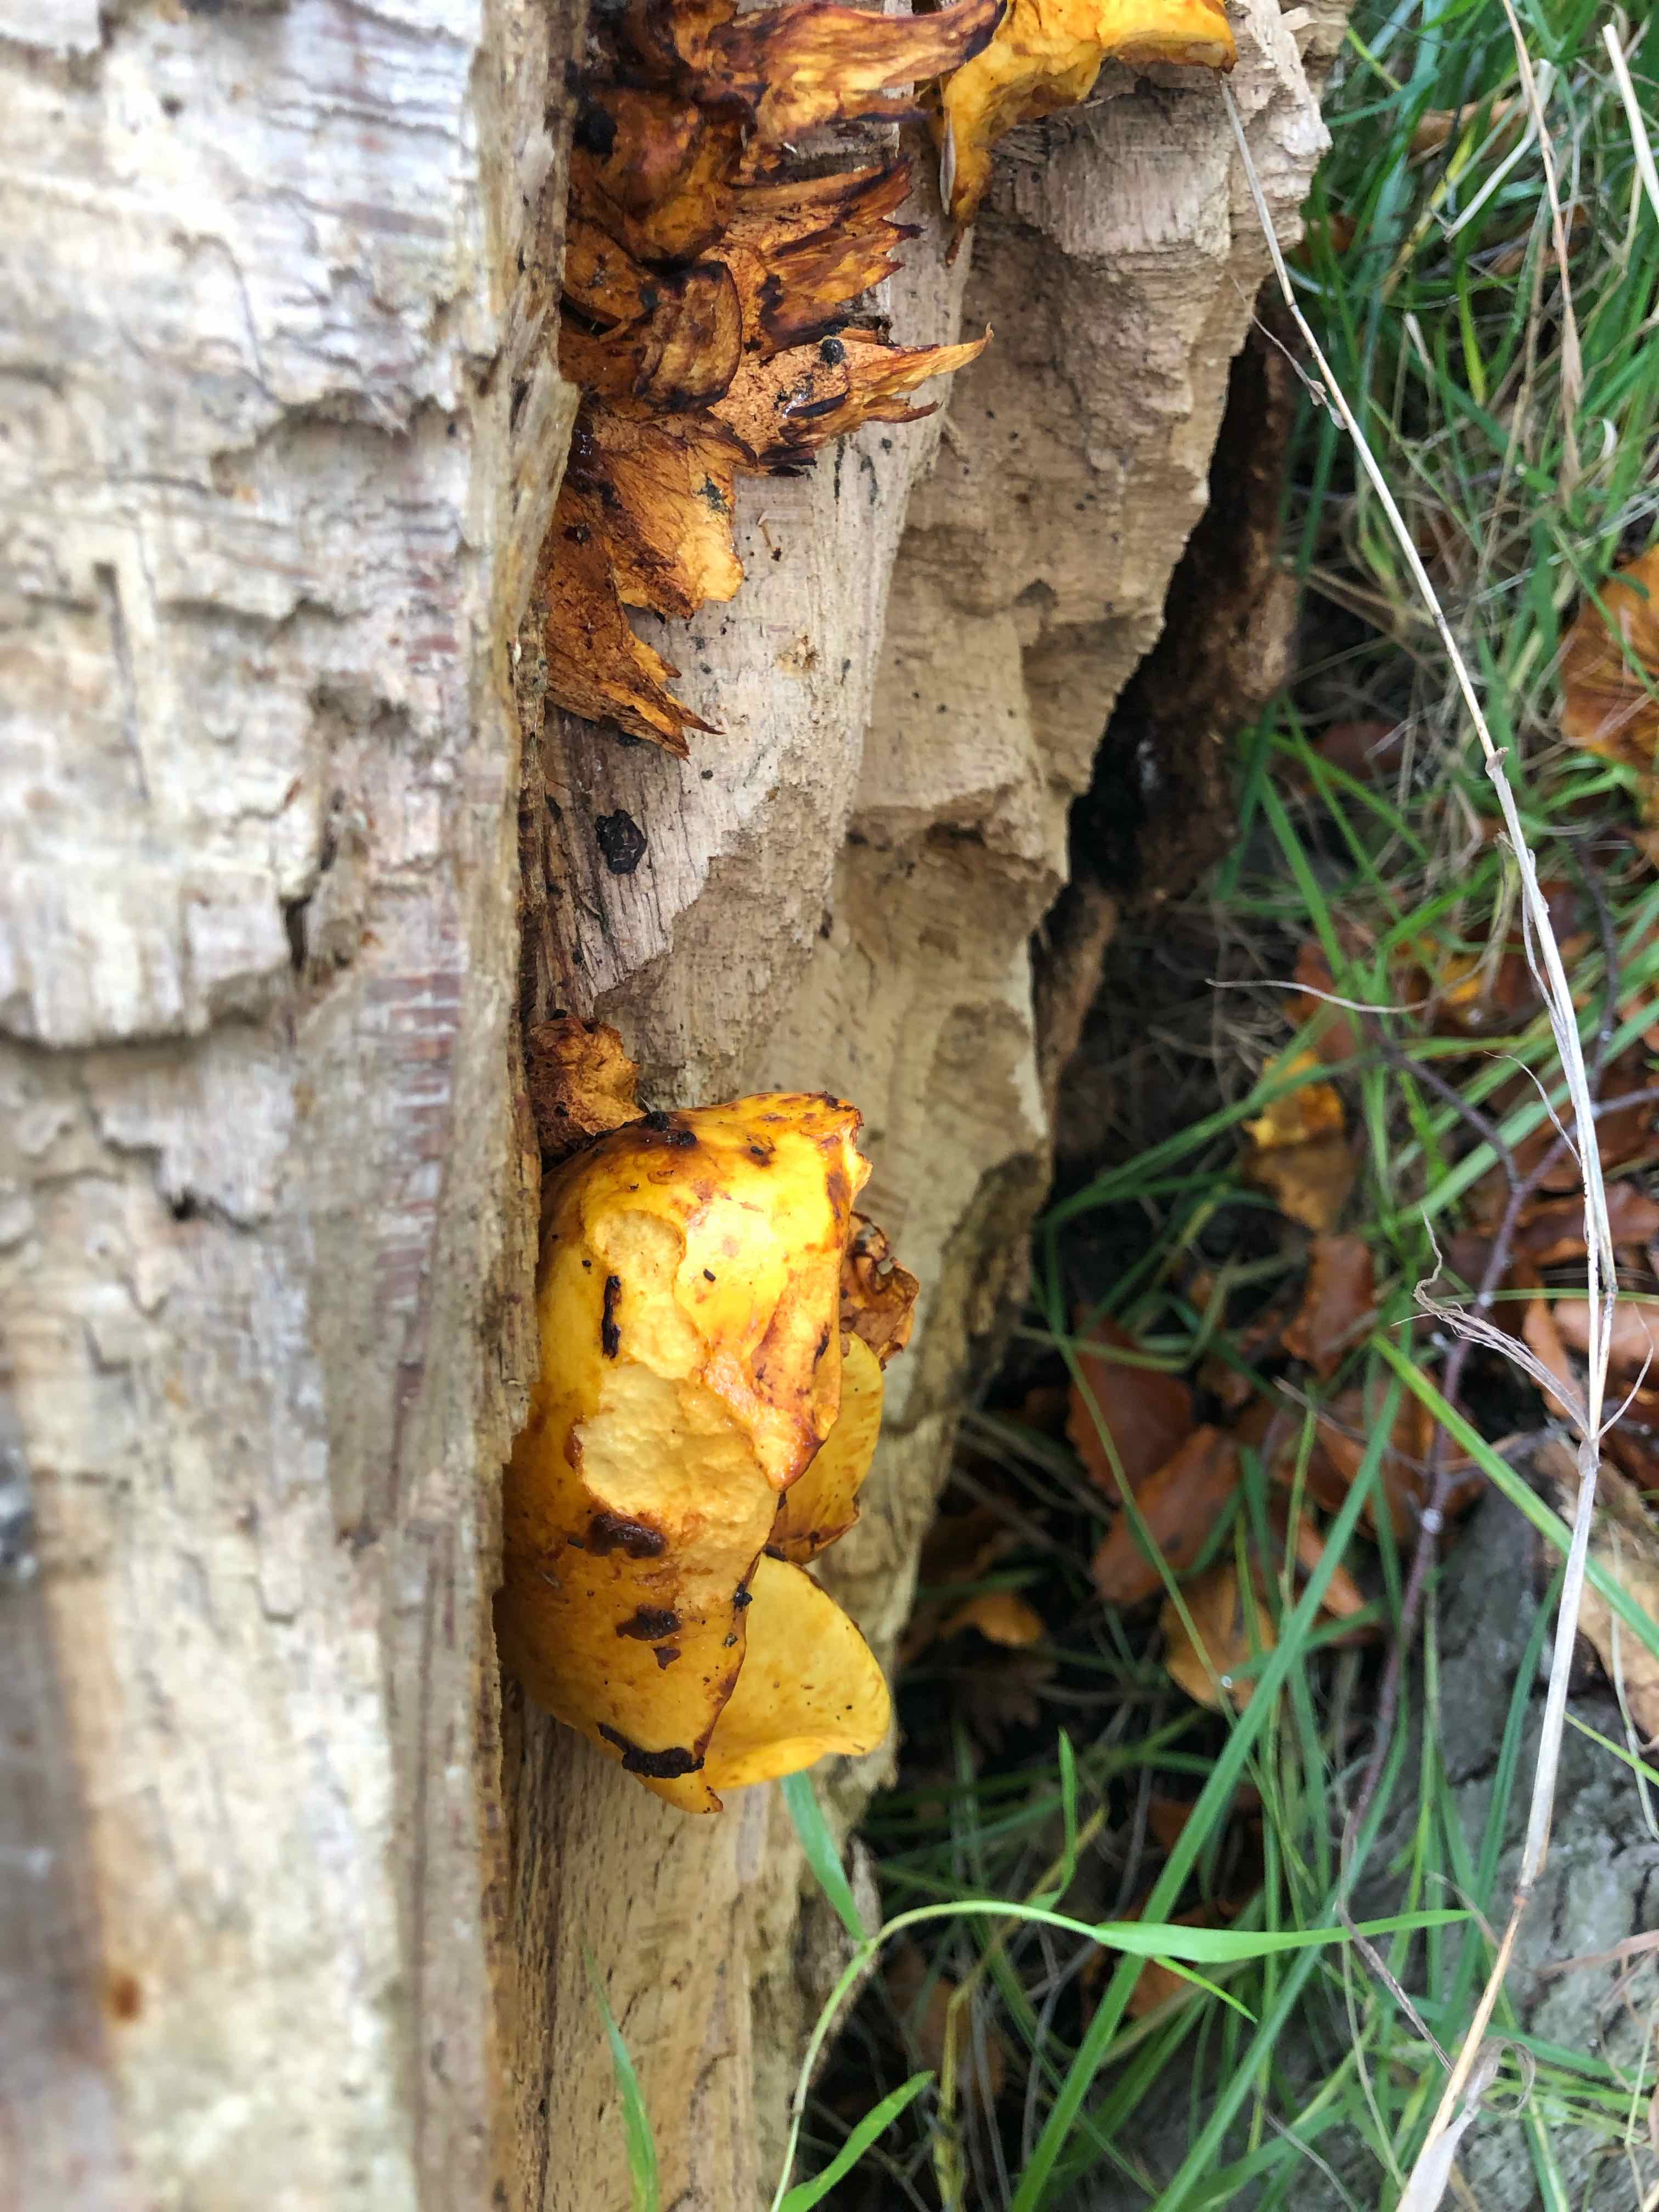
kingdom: Fungi
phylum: Basidiomycota
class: Agaricomycetes
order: Agaricales
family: Strophariaceae
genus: Pholiota
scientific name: Pholiota adiposa
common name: højtsiddende skælhat
